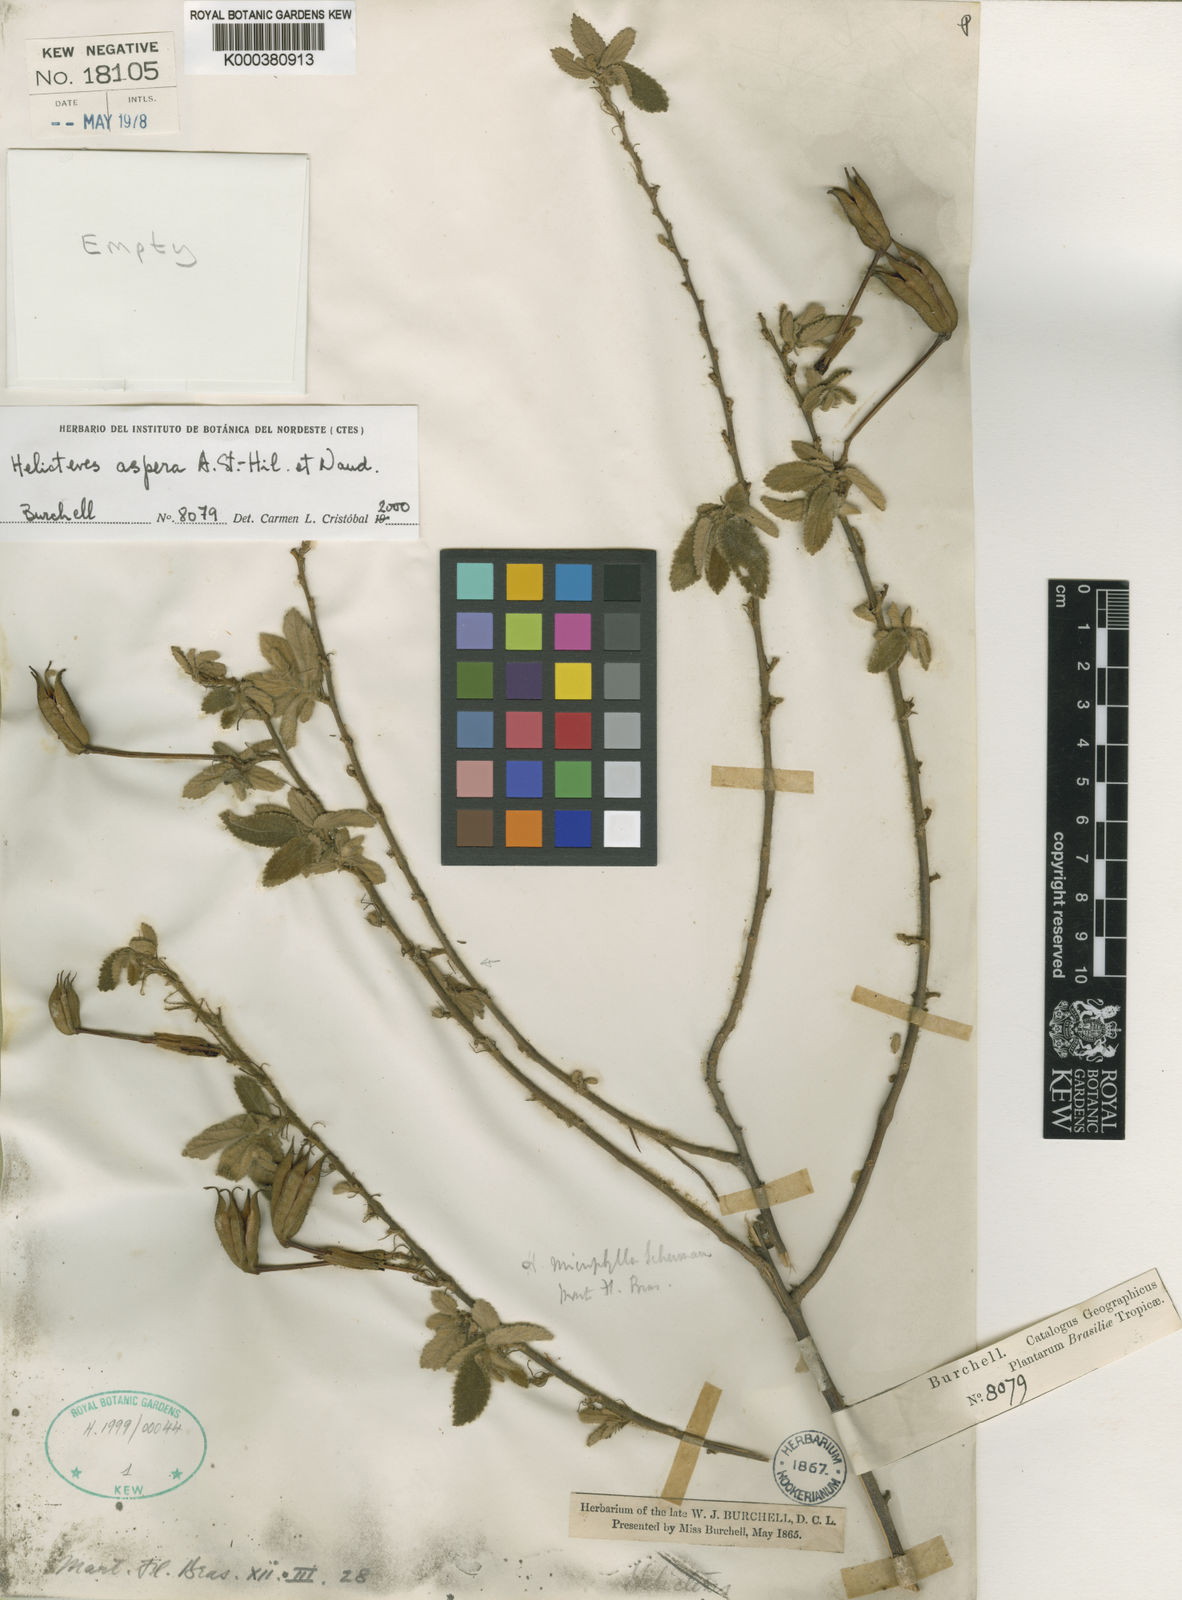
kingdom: Plantae
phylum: Tracheophyta
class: Magnoliopsida
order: Malvales
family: Malvaceae
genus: Helicteres
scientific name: Helicteres aspera
